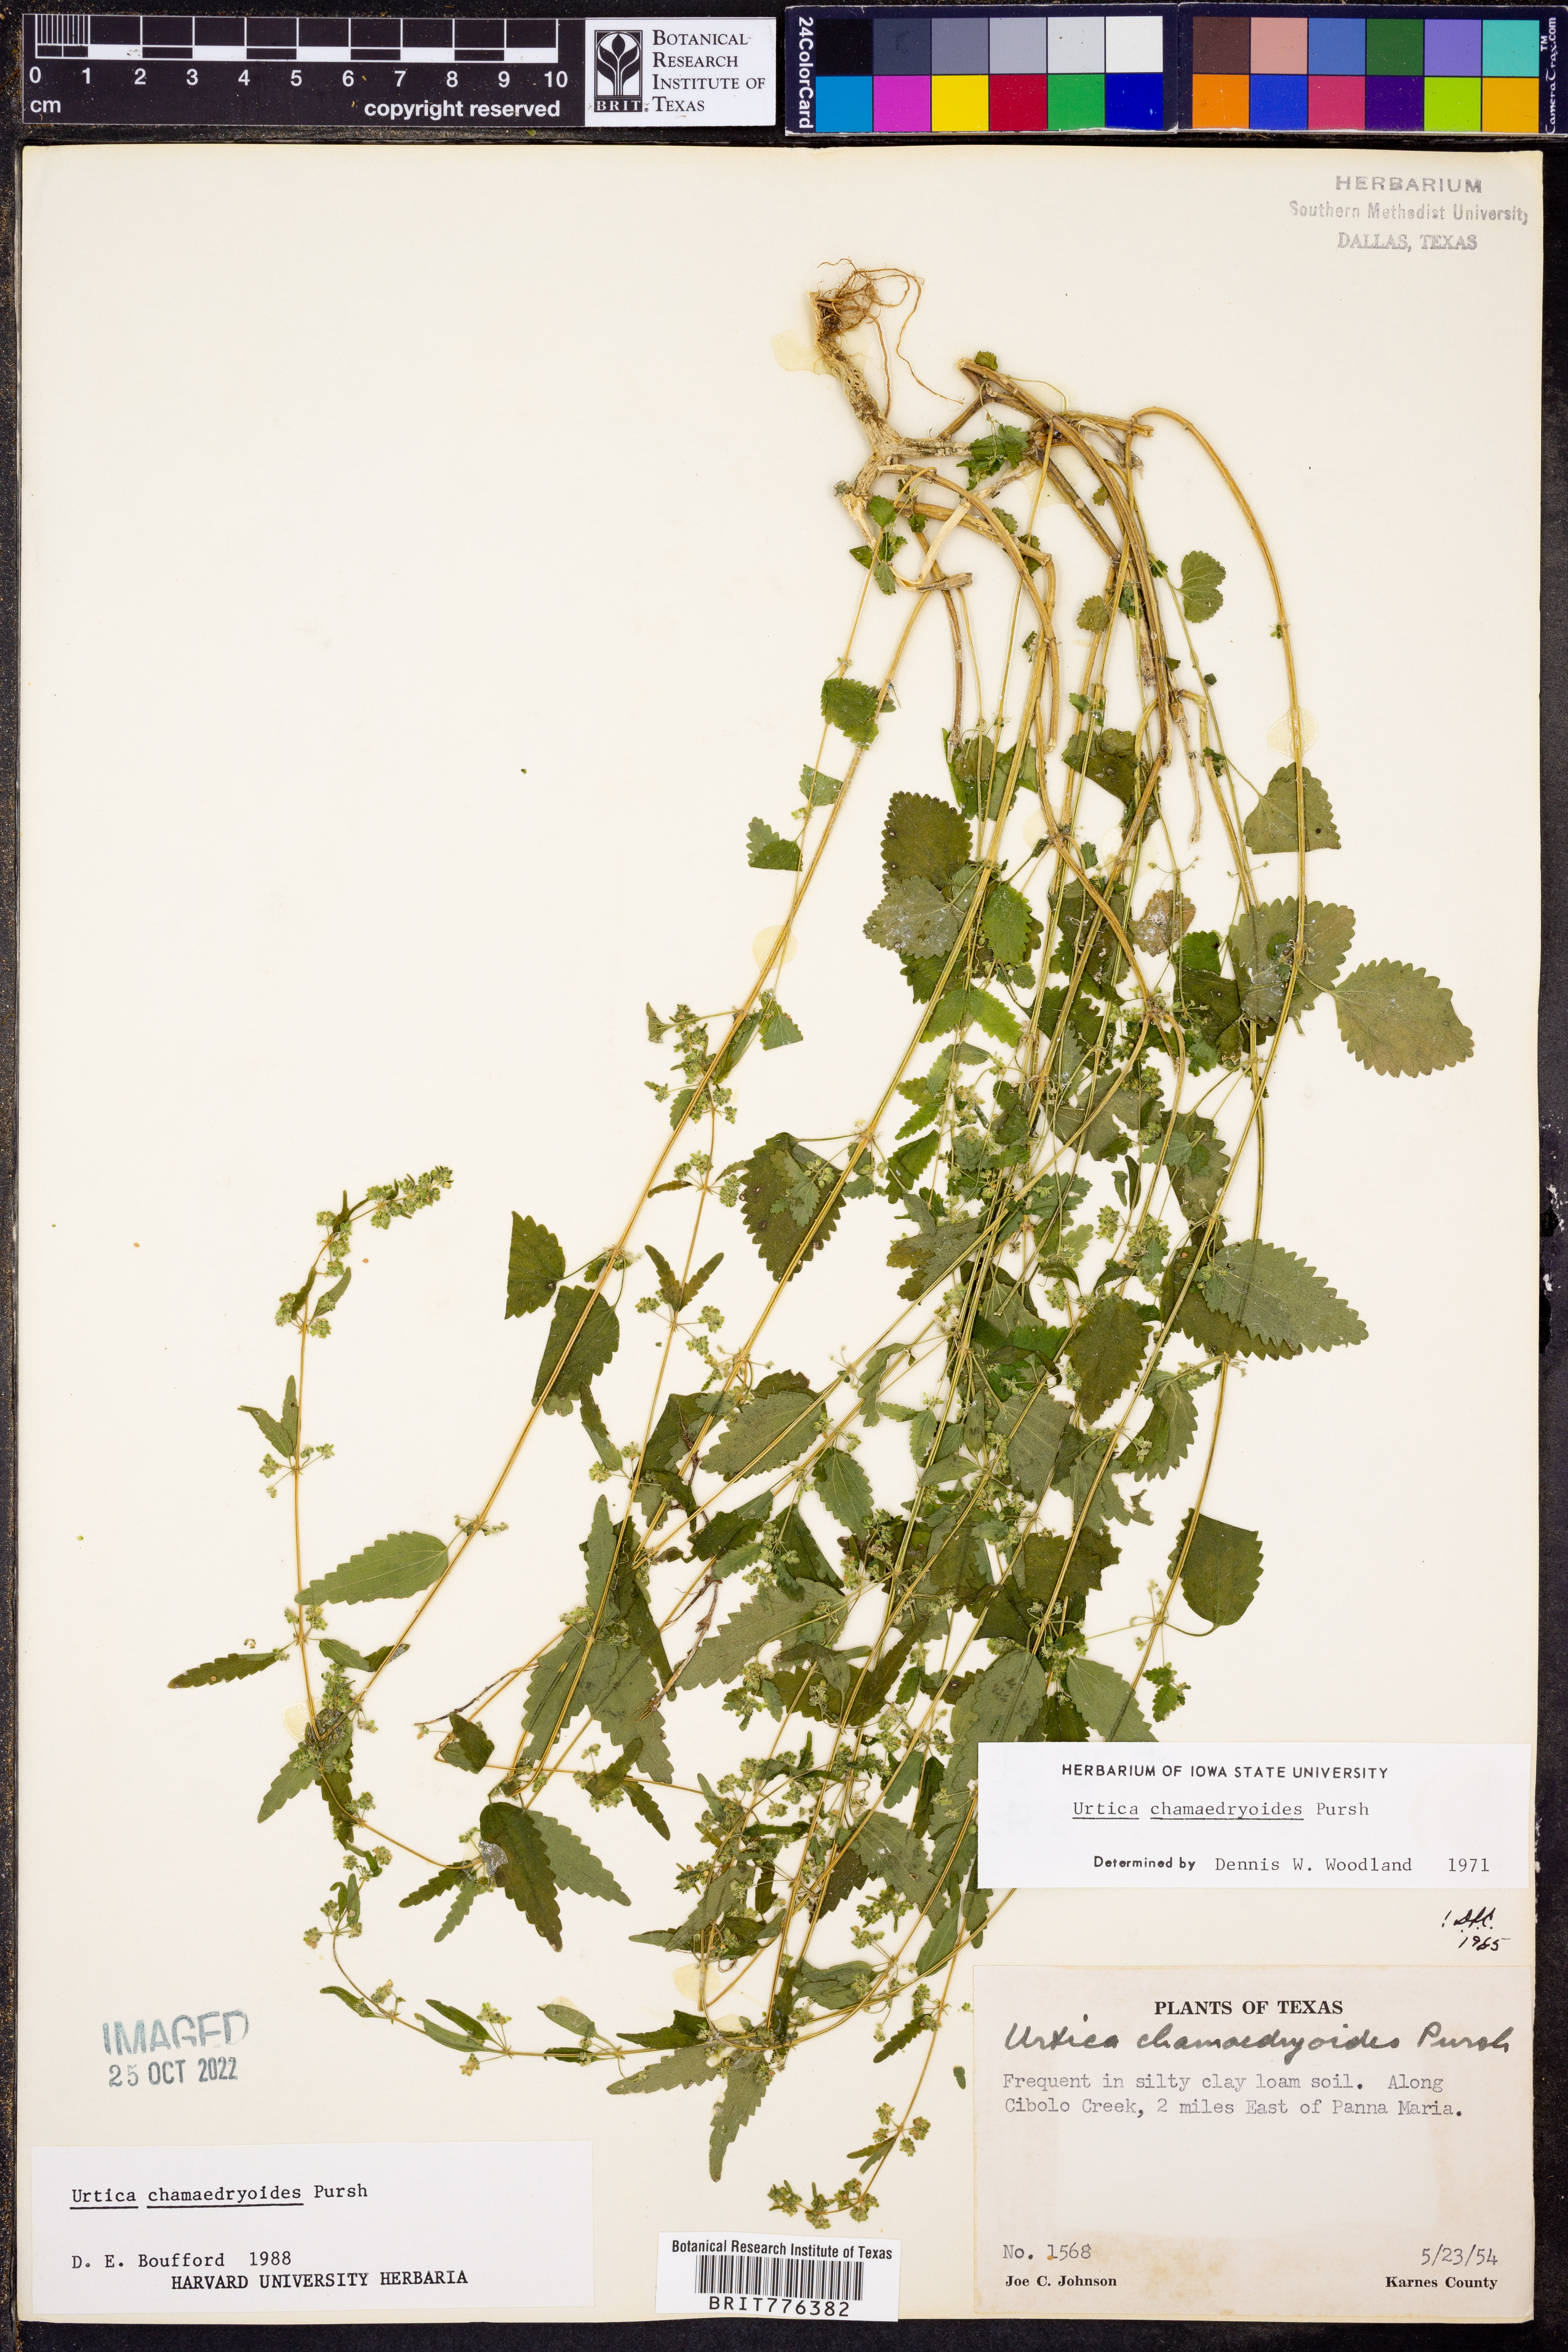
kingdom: Plantae
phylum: Tracheophyta
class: Magnoliopsida
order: Rosales
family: Urticaceae
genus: Urtica
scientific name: Urtica chamaedryoides
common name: Heart-leaf nettle
